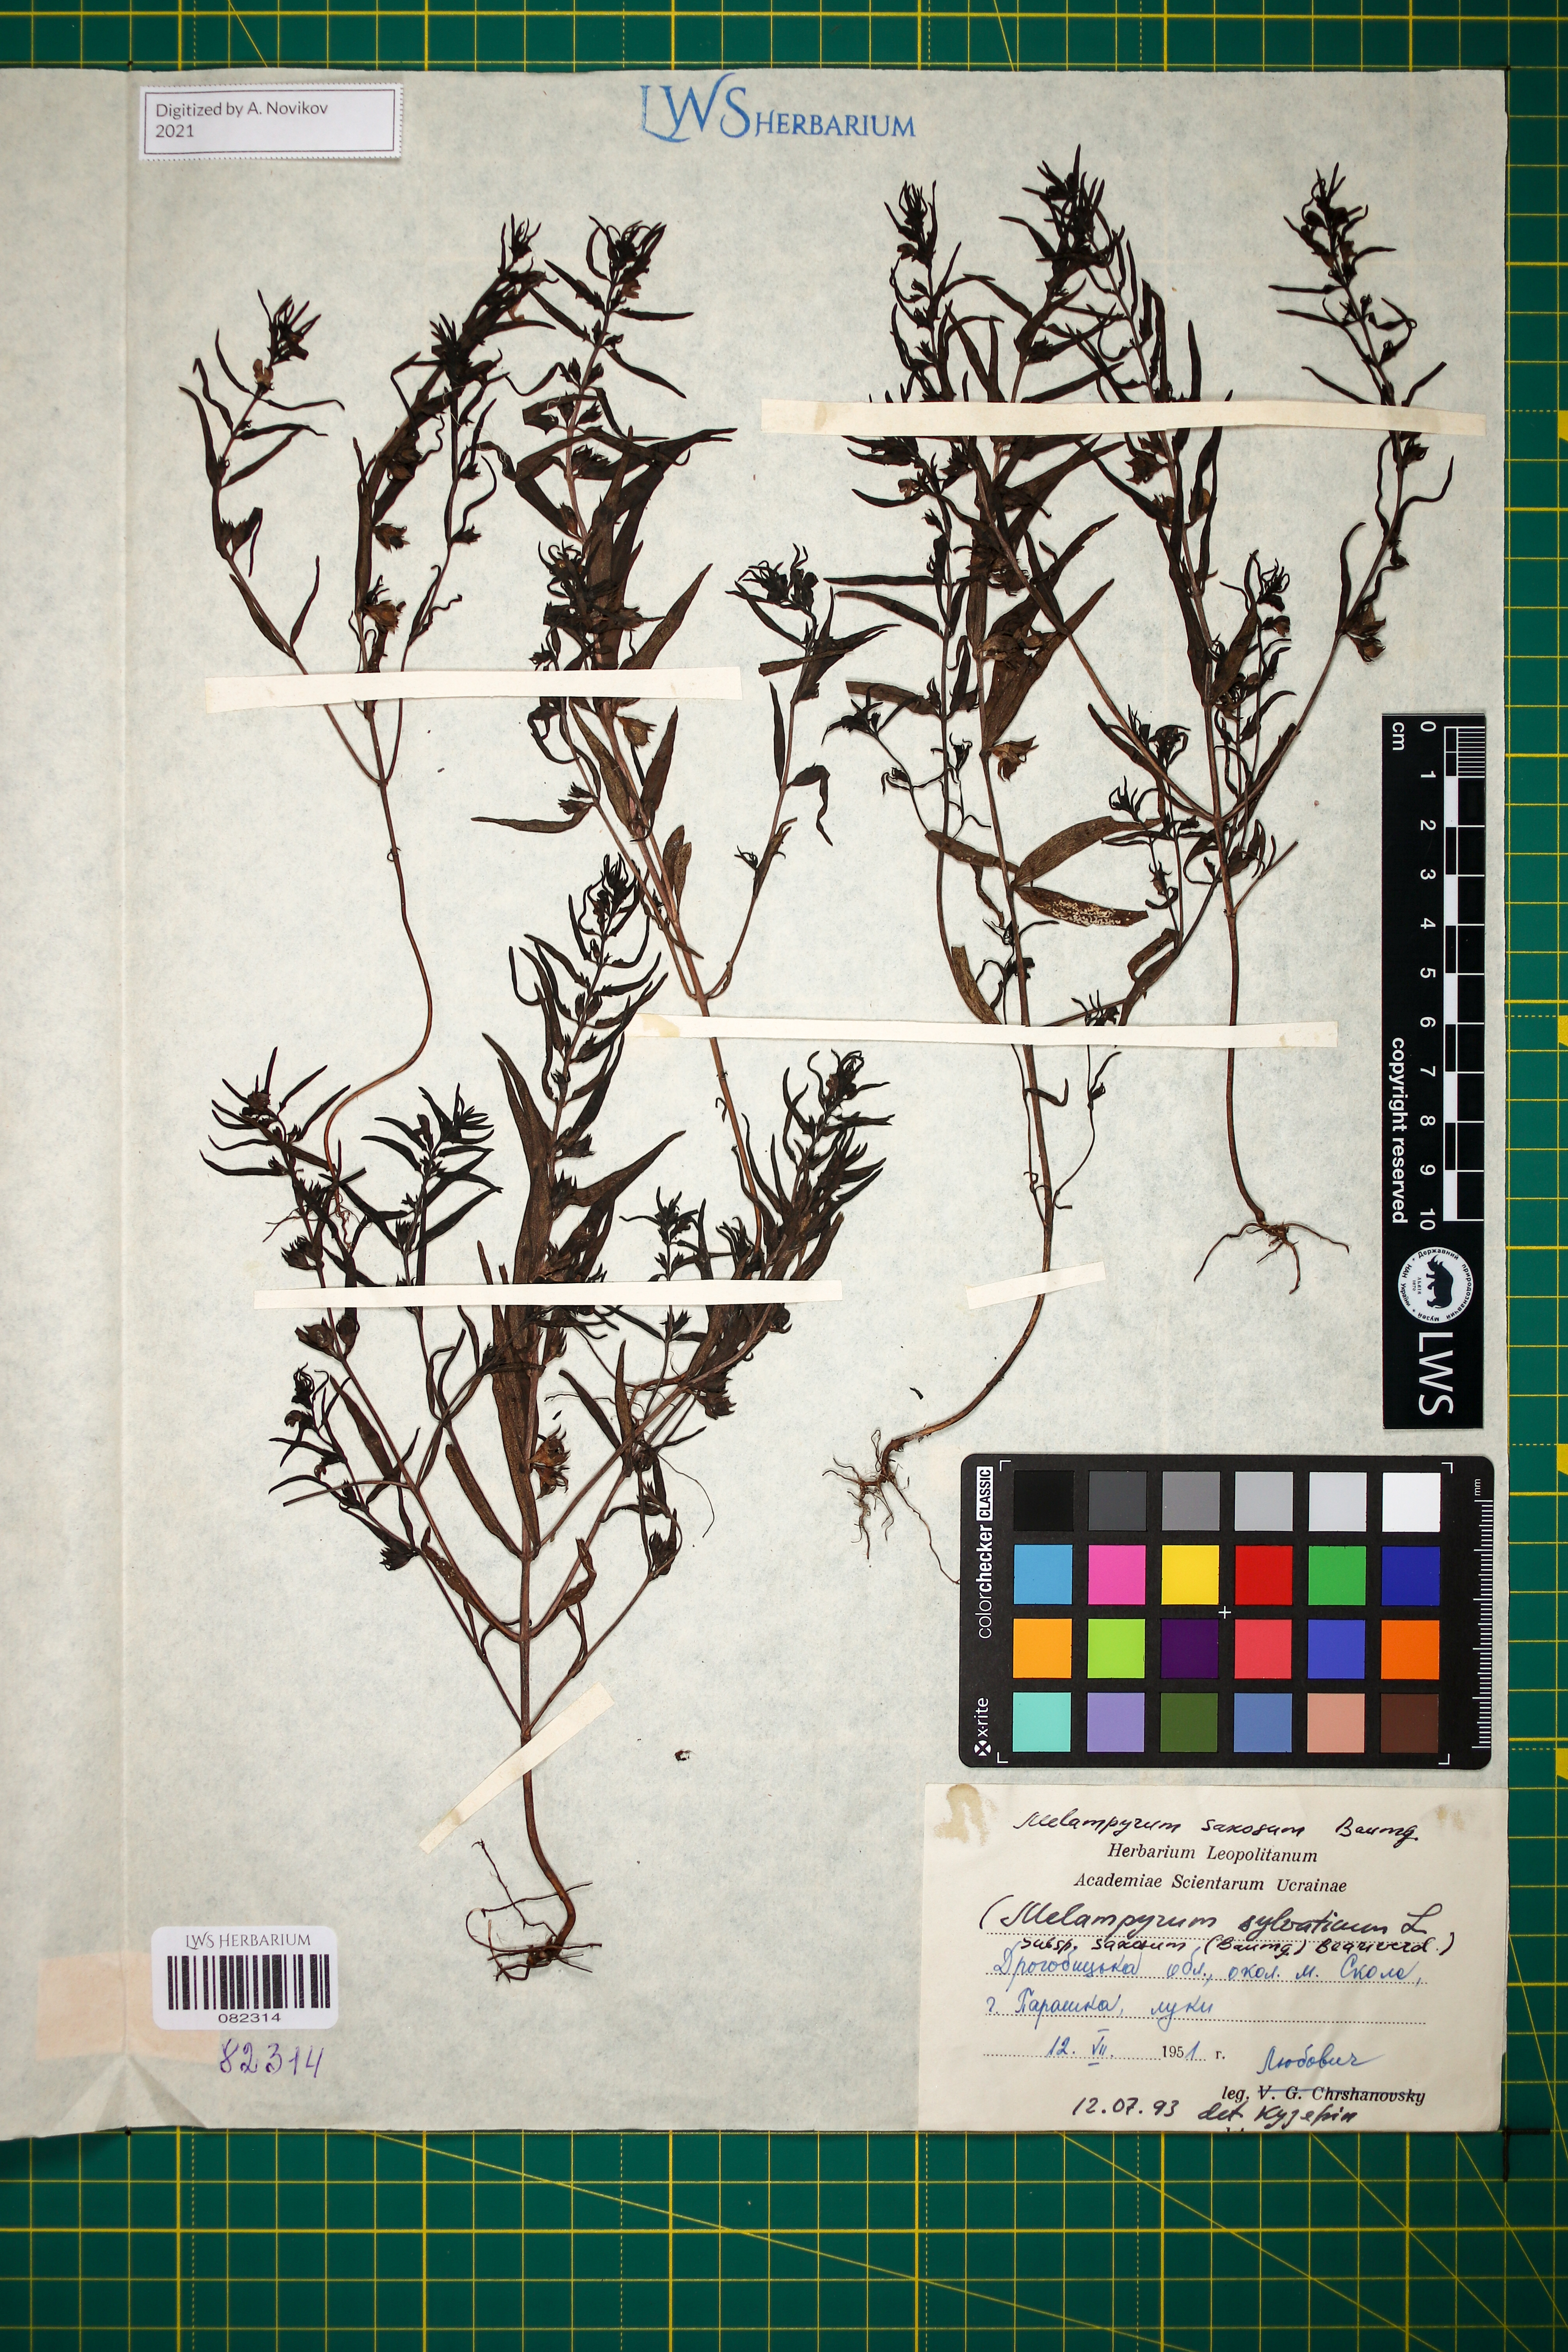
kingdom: Plantae
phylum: Tracheophyta
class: Magnoliopsida
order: Lamiales
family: Orobanchaceae
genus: Melampyrum
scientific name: Melampyrum saxosum
